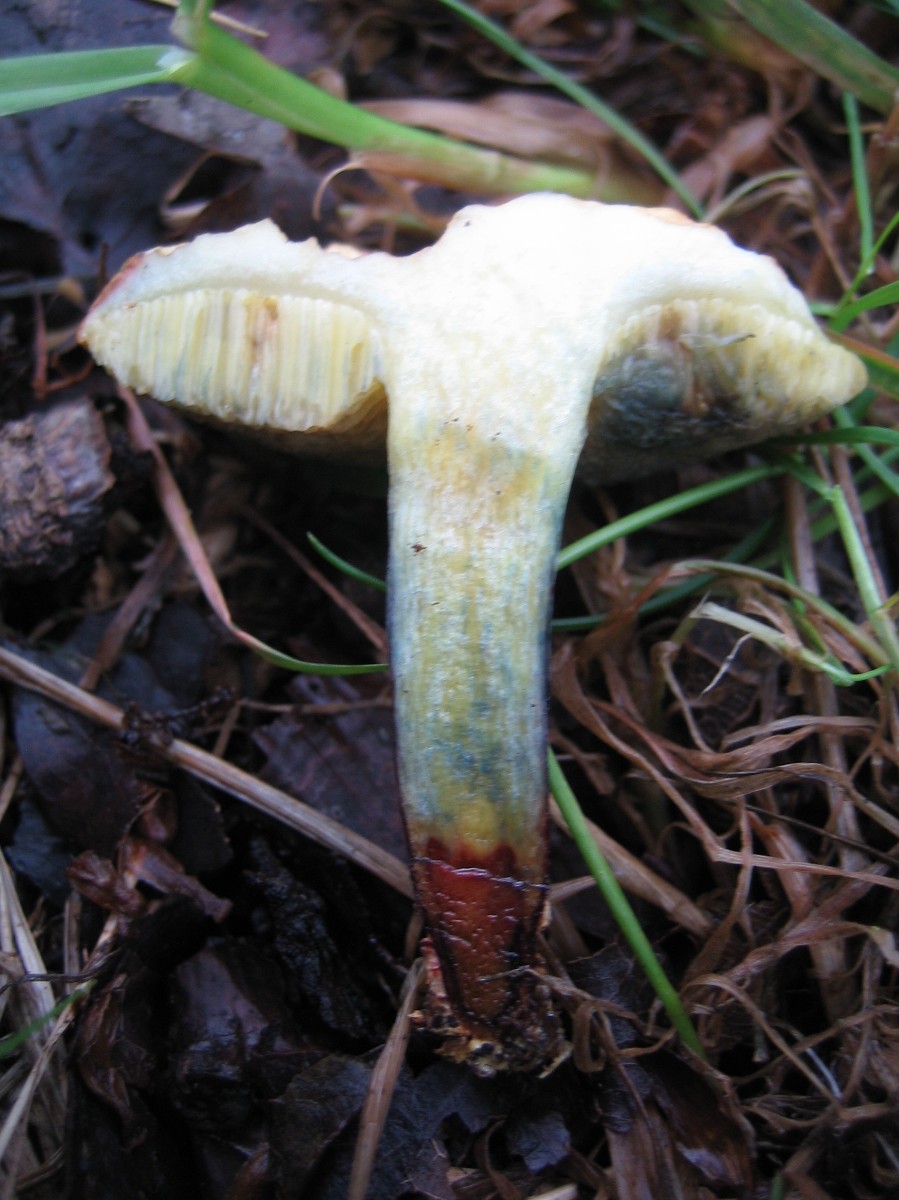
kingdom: Fungi
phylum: Basidiomycota
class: Agaricomycetes
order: Boletales
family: Boletaceae
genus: Xerocomellus
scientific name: Xerocomellus cisalpinus
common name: finsprukken rørhat
